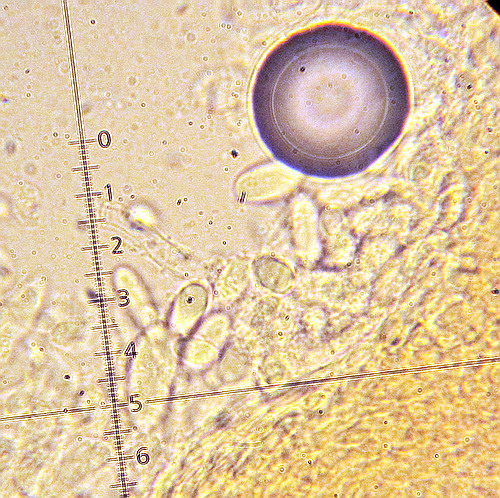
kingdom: Fungi
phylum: Ascomycota
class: Sordariomycetes
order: Hypocreales
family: Hypocreaceae
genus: Hypomyces
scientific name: Hypomyces microspermus
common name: dværgrørhat-snylteskorpe
